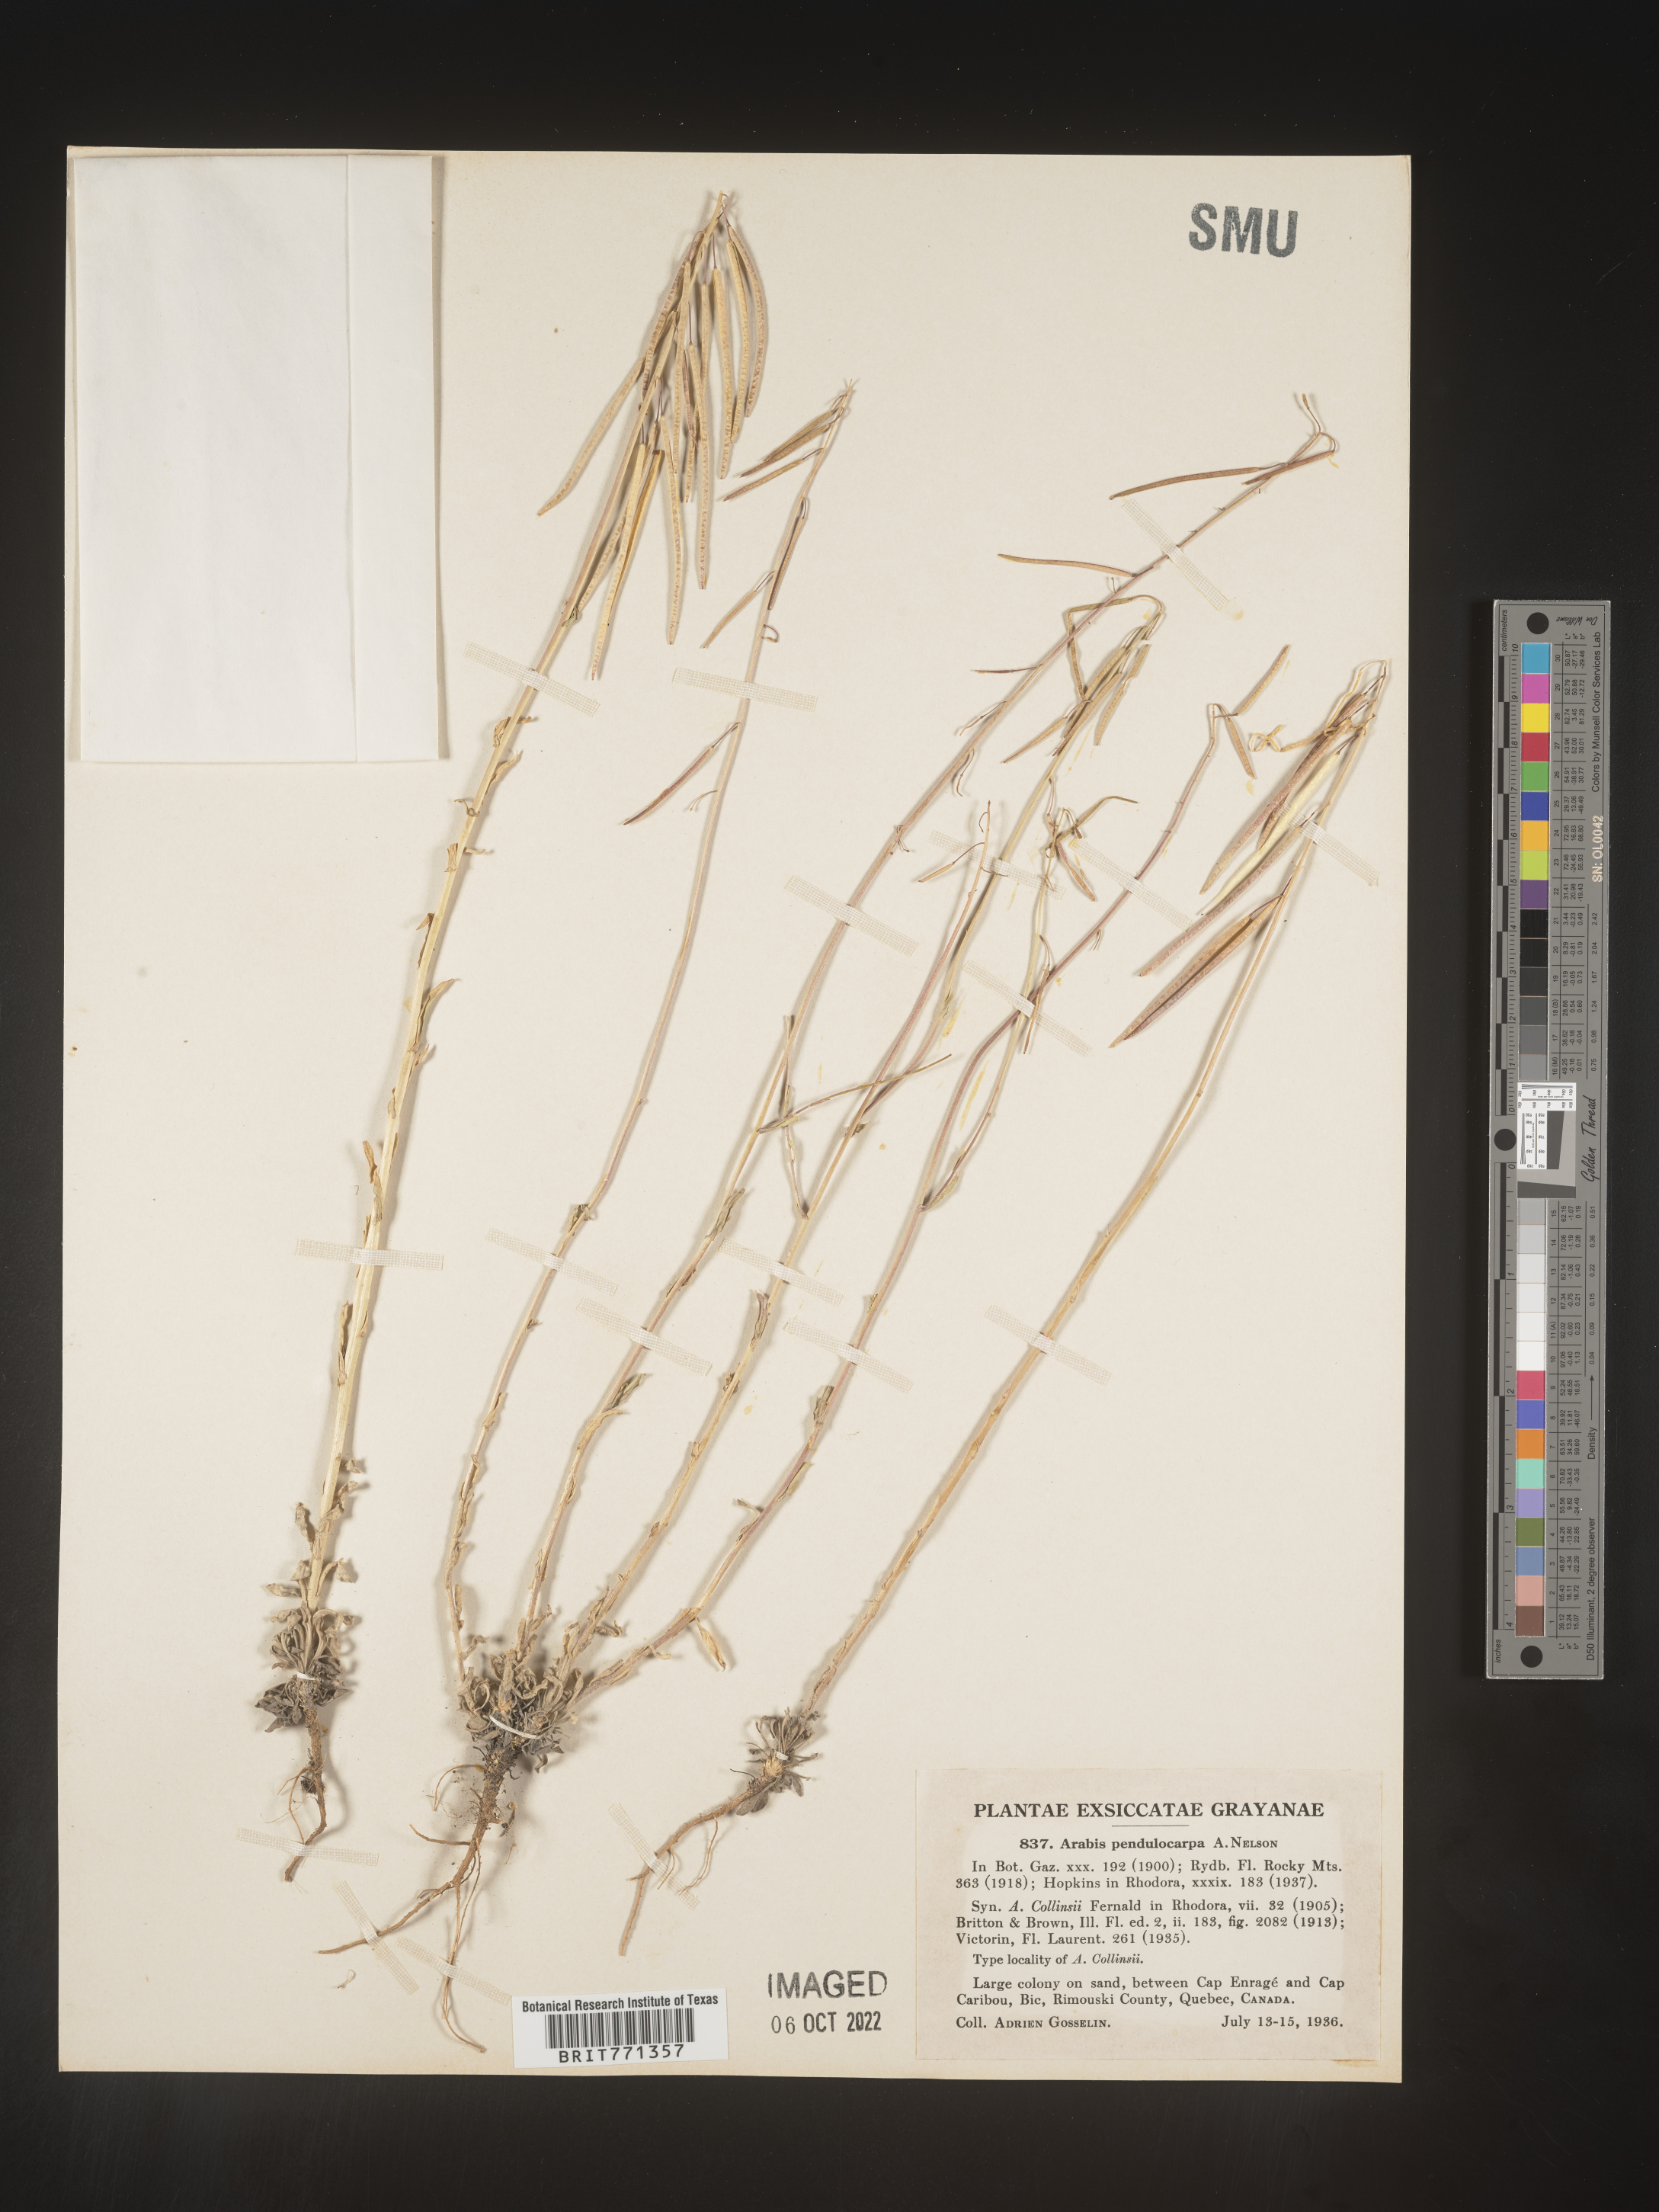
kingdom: Plantae
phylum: Tracheophyta
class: Magnoliopsida
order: Brassicales
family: Brassicaceae
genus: Arabis
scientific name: Arabis
